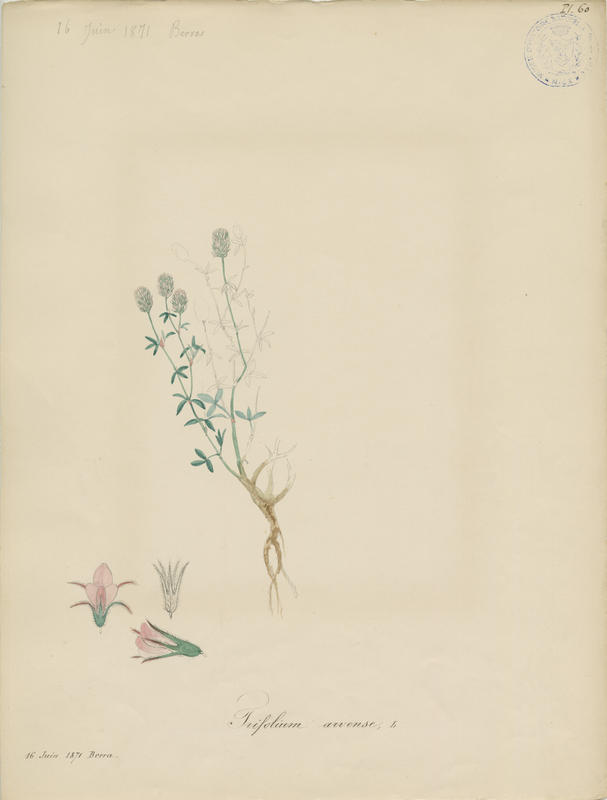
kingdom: Plantae
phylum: Tracheophyta
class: Magnoliopsida
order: Fabales
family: Fabaceae
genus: Trifolium
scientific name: Trifolium arvense
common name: Hare's-foot clover
